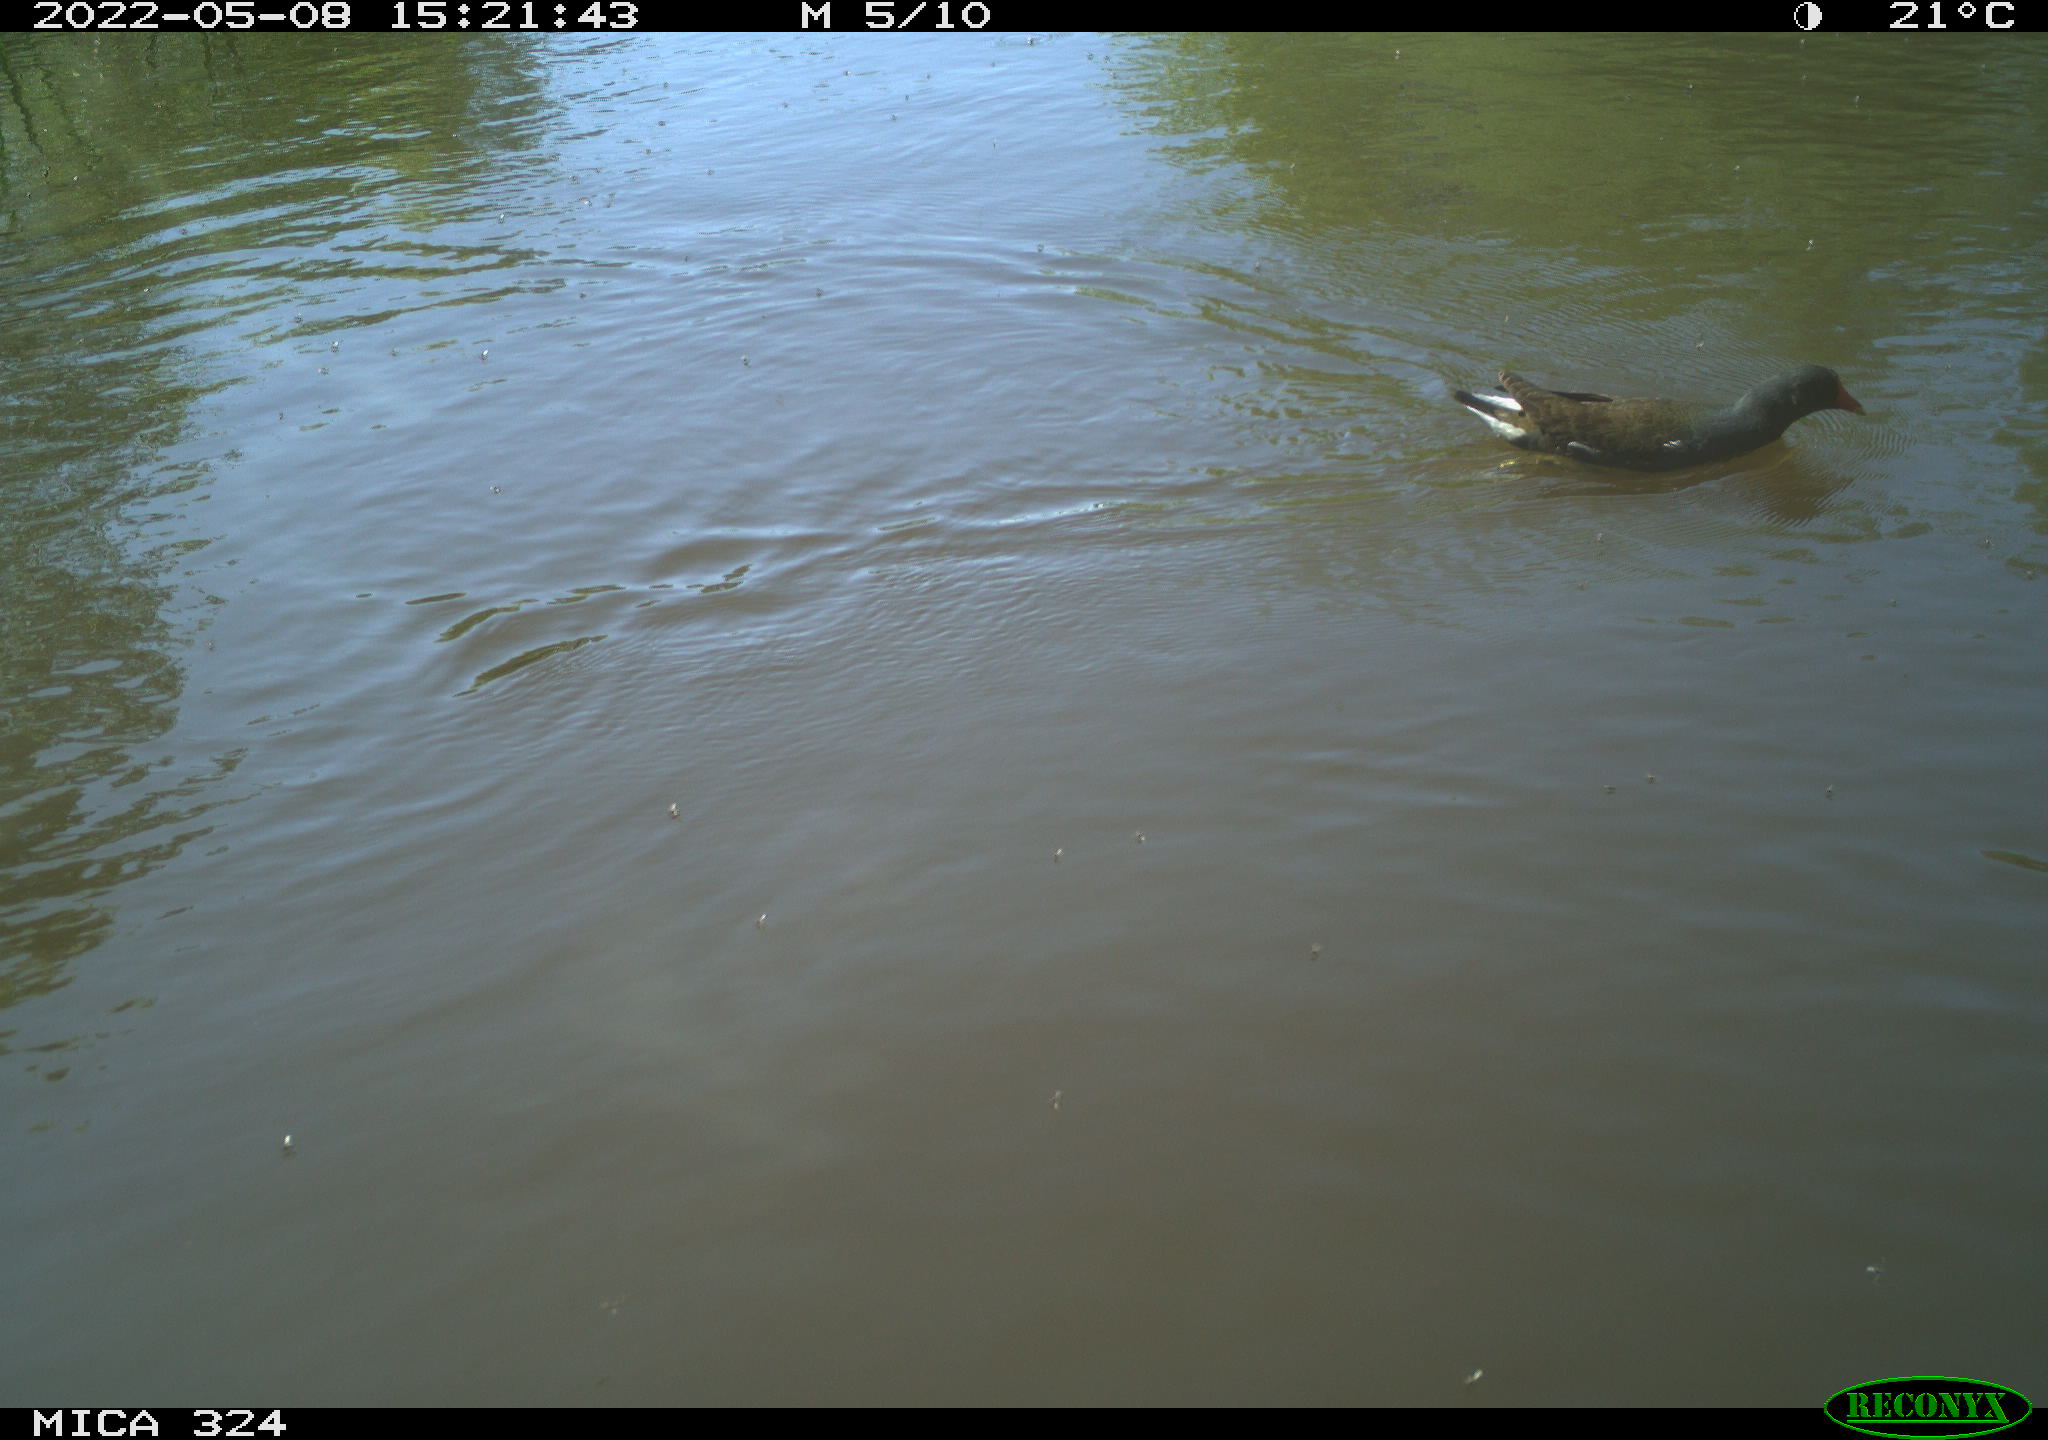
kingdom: Animalia
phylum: Chordata
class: Aves
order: Gruiformes
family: Rallidae
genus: Gallinula
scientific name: Gallinula chloropus
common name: Common moorhen
